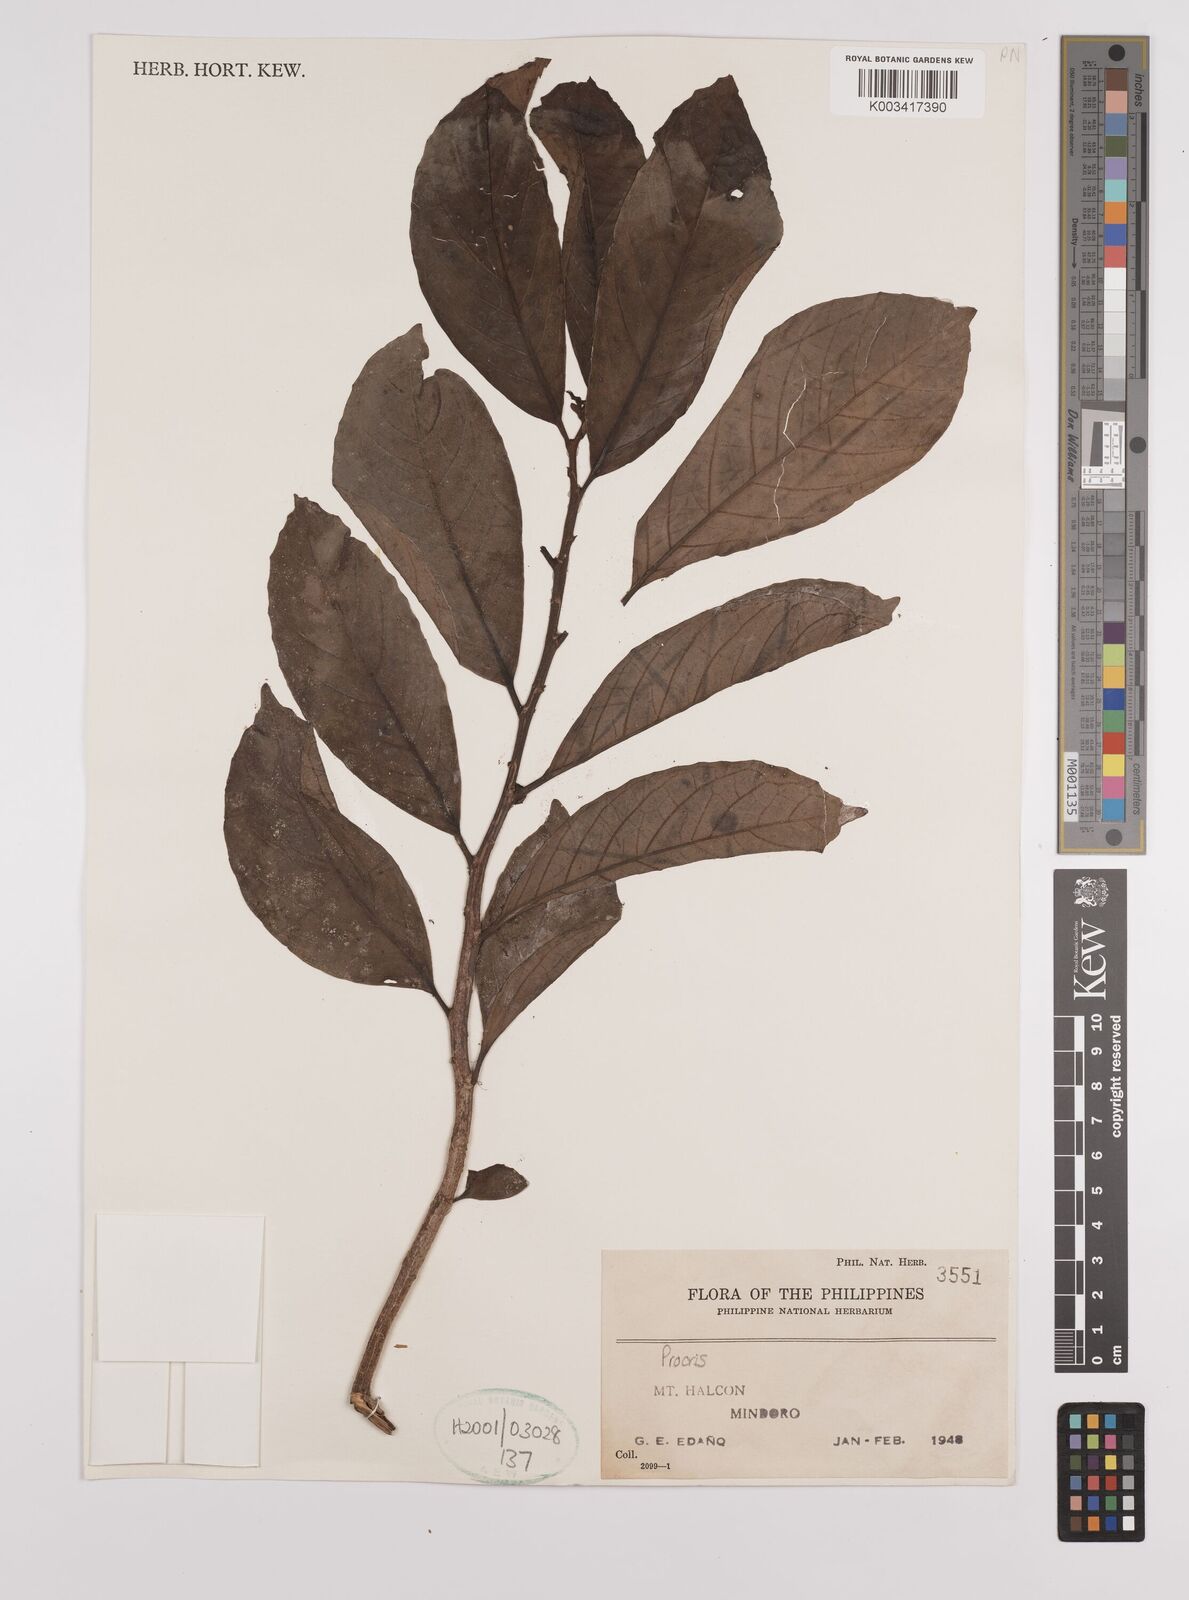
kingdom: Plantae
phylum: Tracheophyta
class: Magnoliopsida
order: Rosales
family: Urticaceae
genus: Procris
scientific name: Procris
